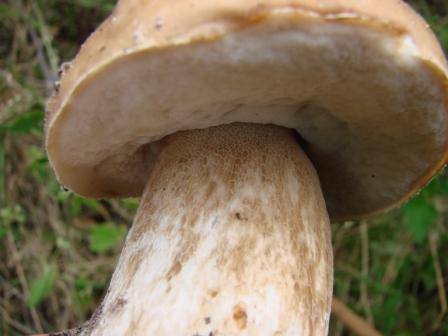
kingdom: Fungi
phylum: Basidiomycota
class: Agaricomycetes
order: Boletales
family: Boletaceae
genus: Boletus
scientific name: Boletus reticulatus
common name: sommer-rørhat
